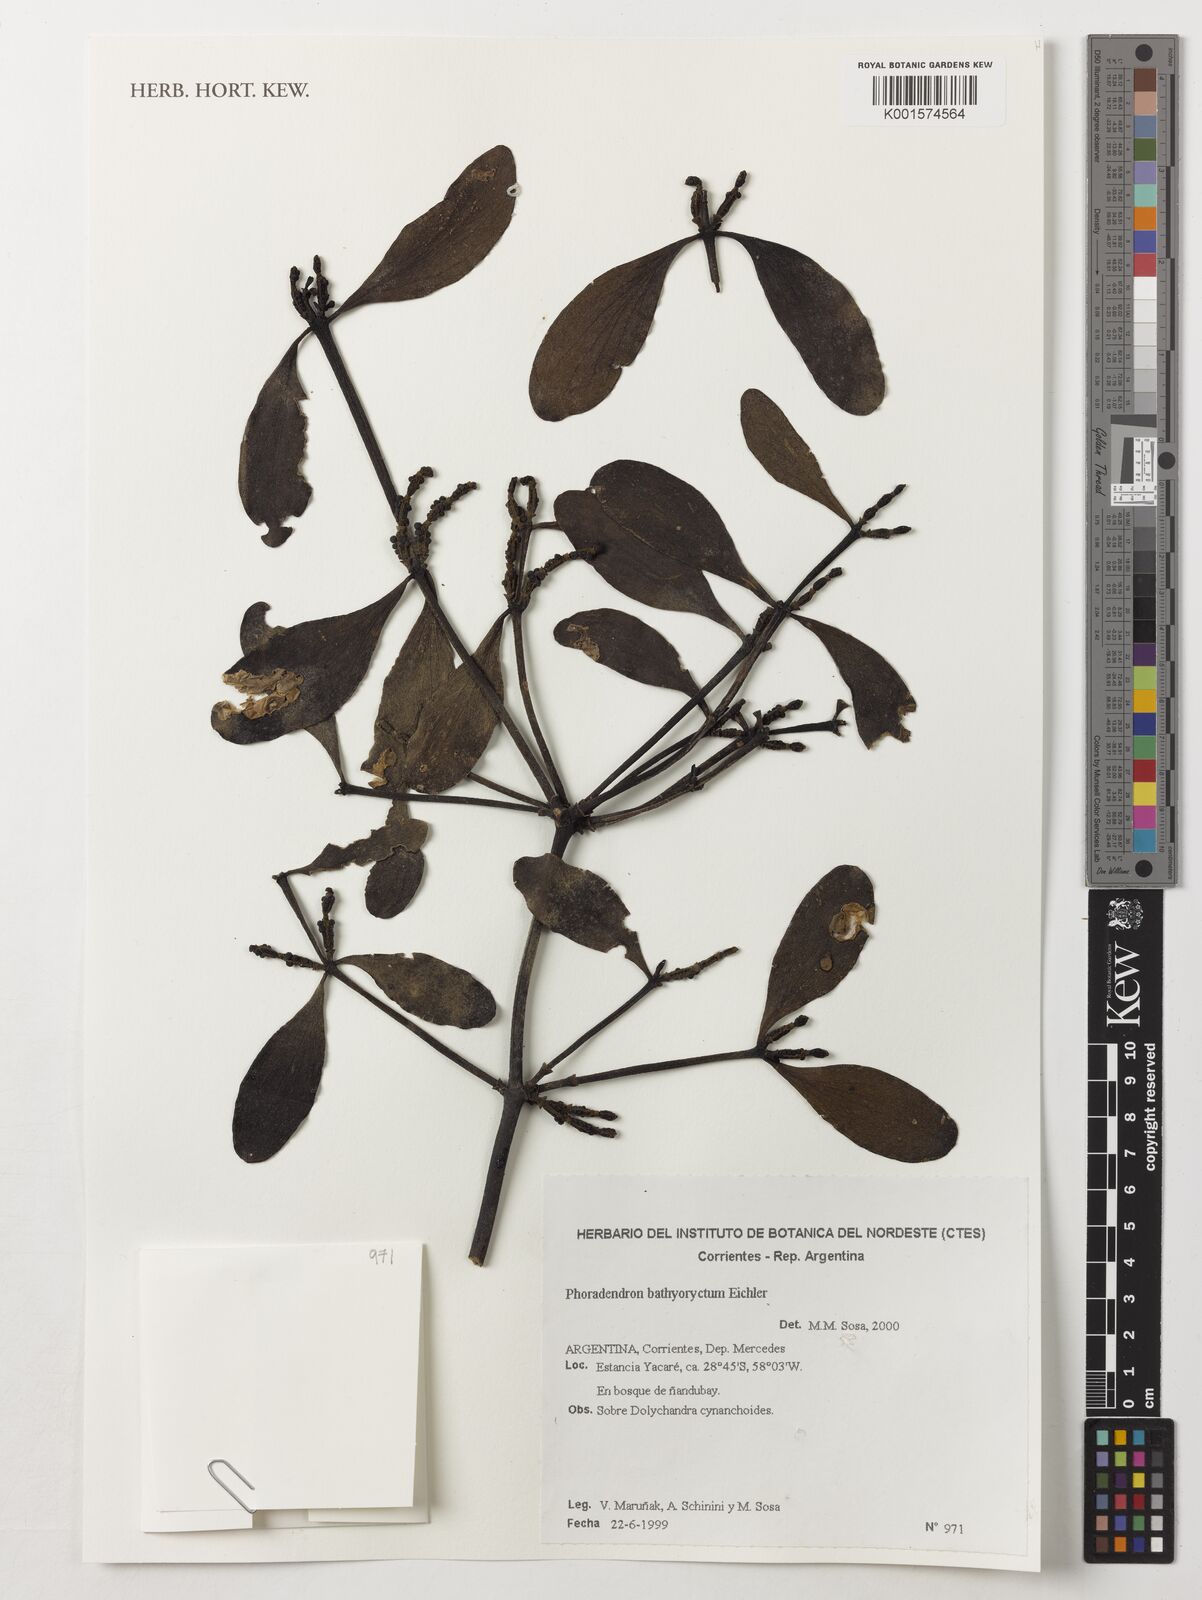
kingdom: Plantae
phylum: Tracheophyta
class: Magnoliopsida
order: Santalales
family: Viscaceae
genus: Phoradendron
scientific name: Phoradendron bathyoryctum
